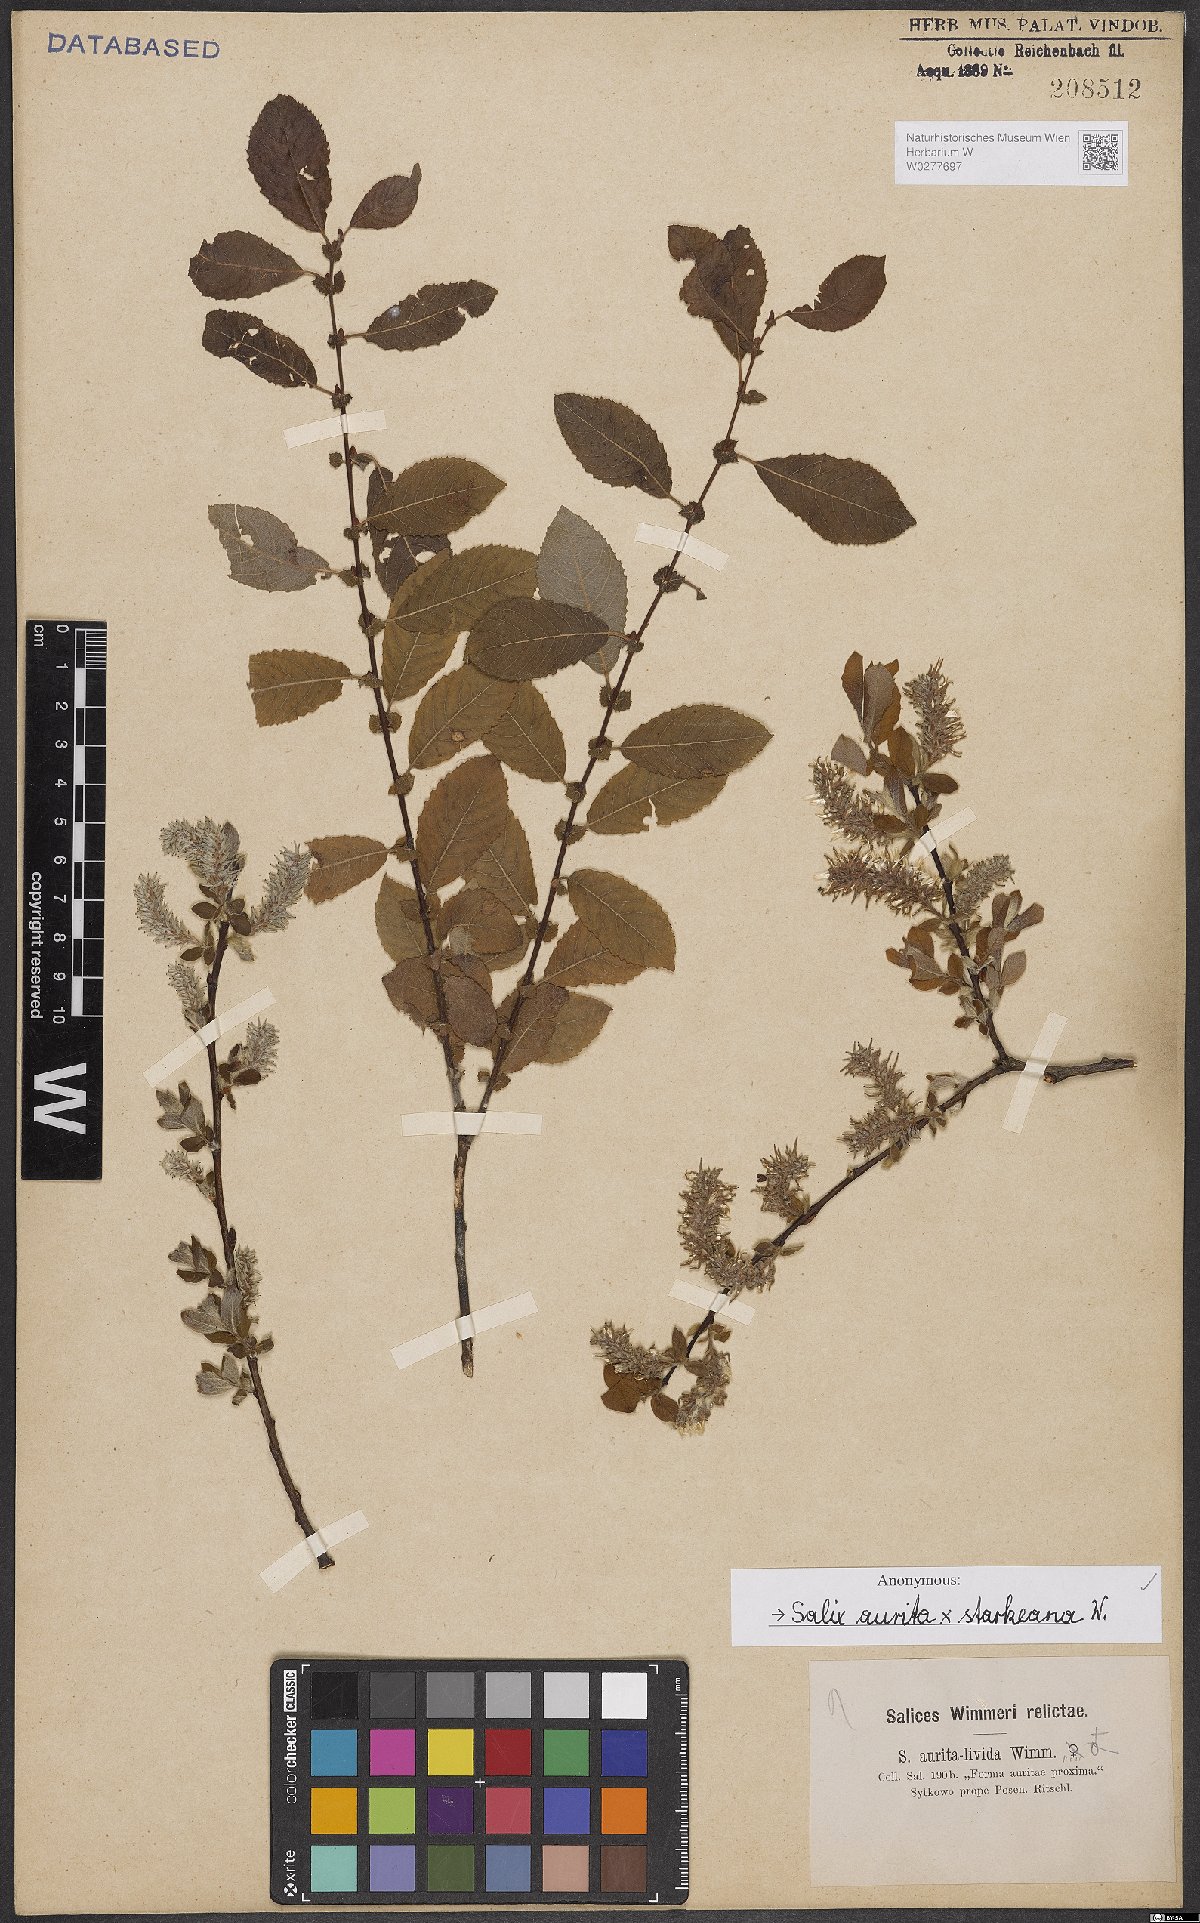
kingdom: Plantae
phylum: Tracheophyta
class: Magnoliopsida
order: Malpighiales
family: Salicaceae
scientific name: Salicaceae
